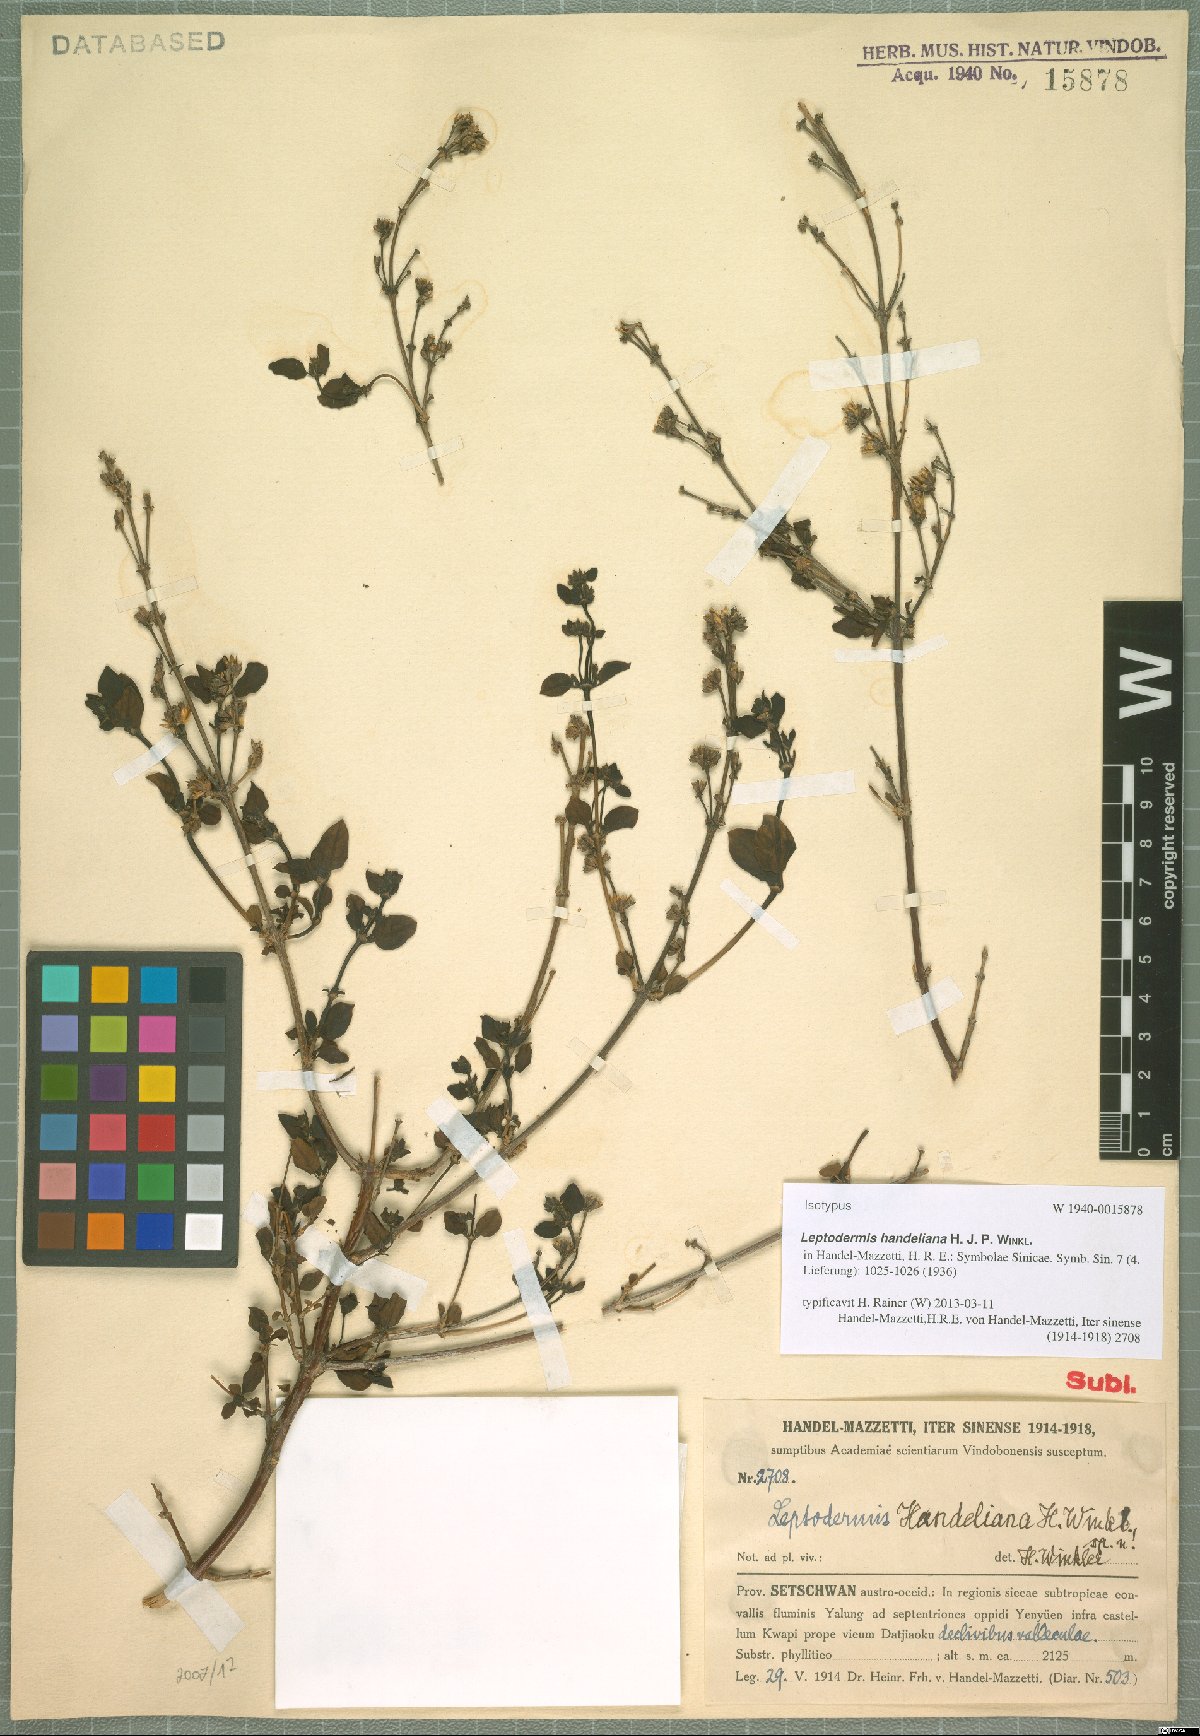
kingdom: Plantae
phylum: Tracheophyta
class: Magnoliopsida
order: Gentianales
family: Rubiaceae
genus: Leptodermis
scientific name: Leptodermis handeliana
